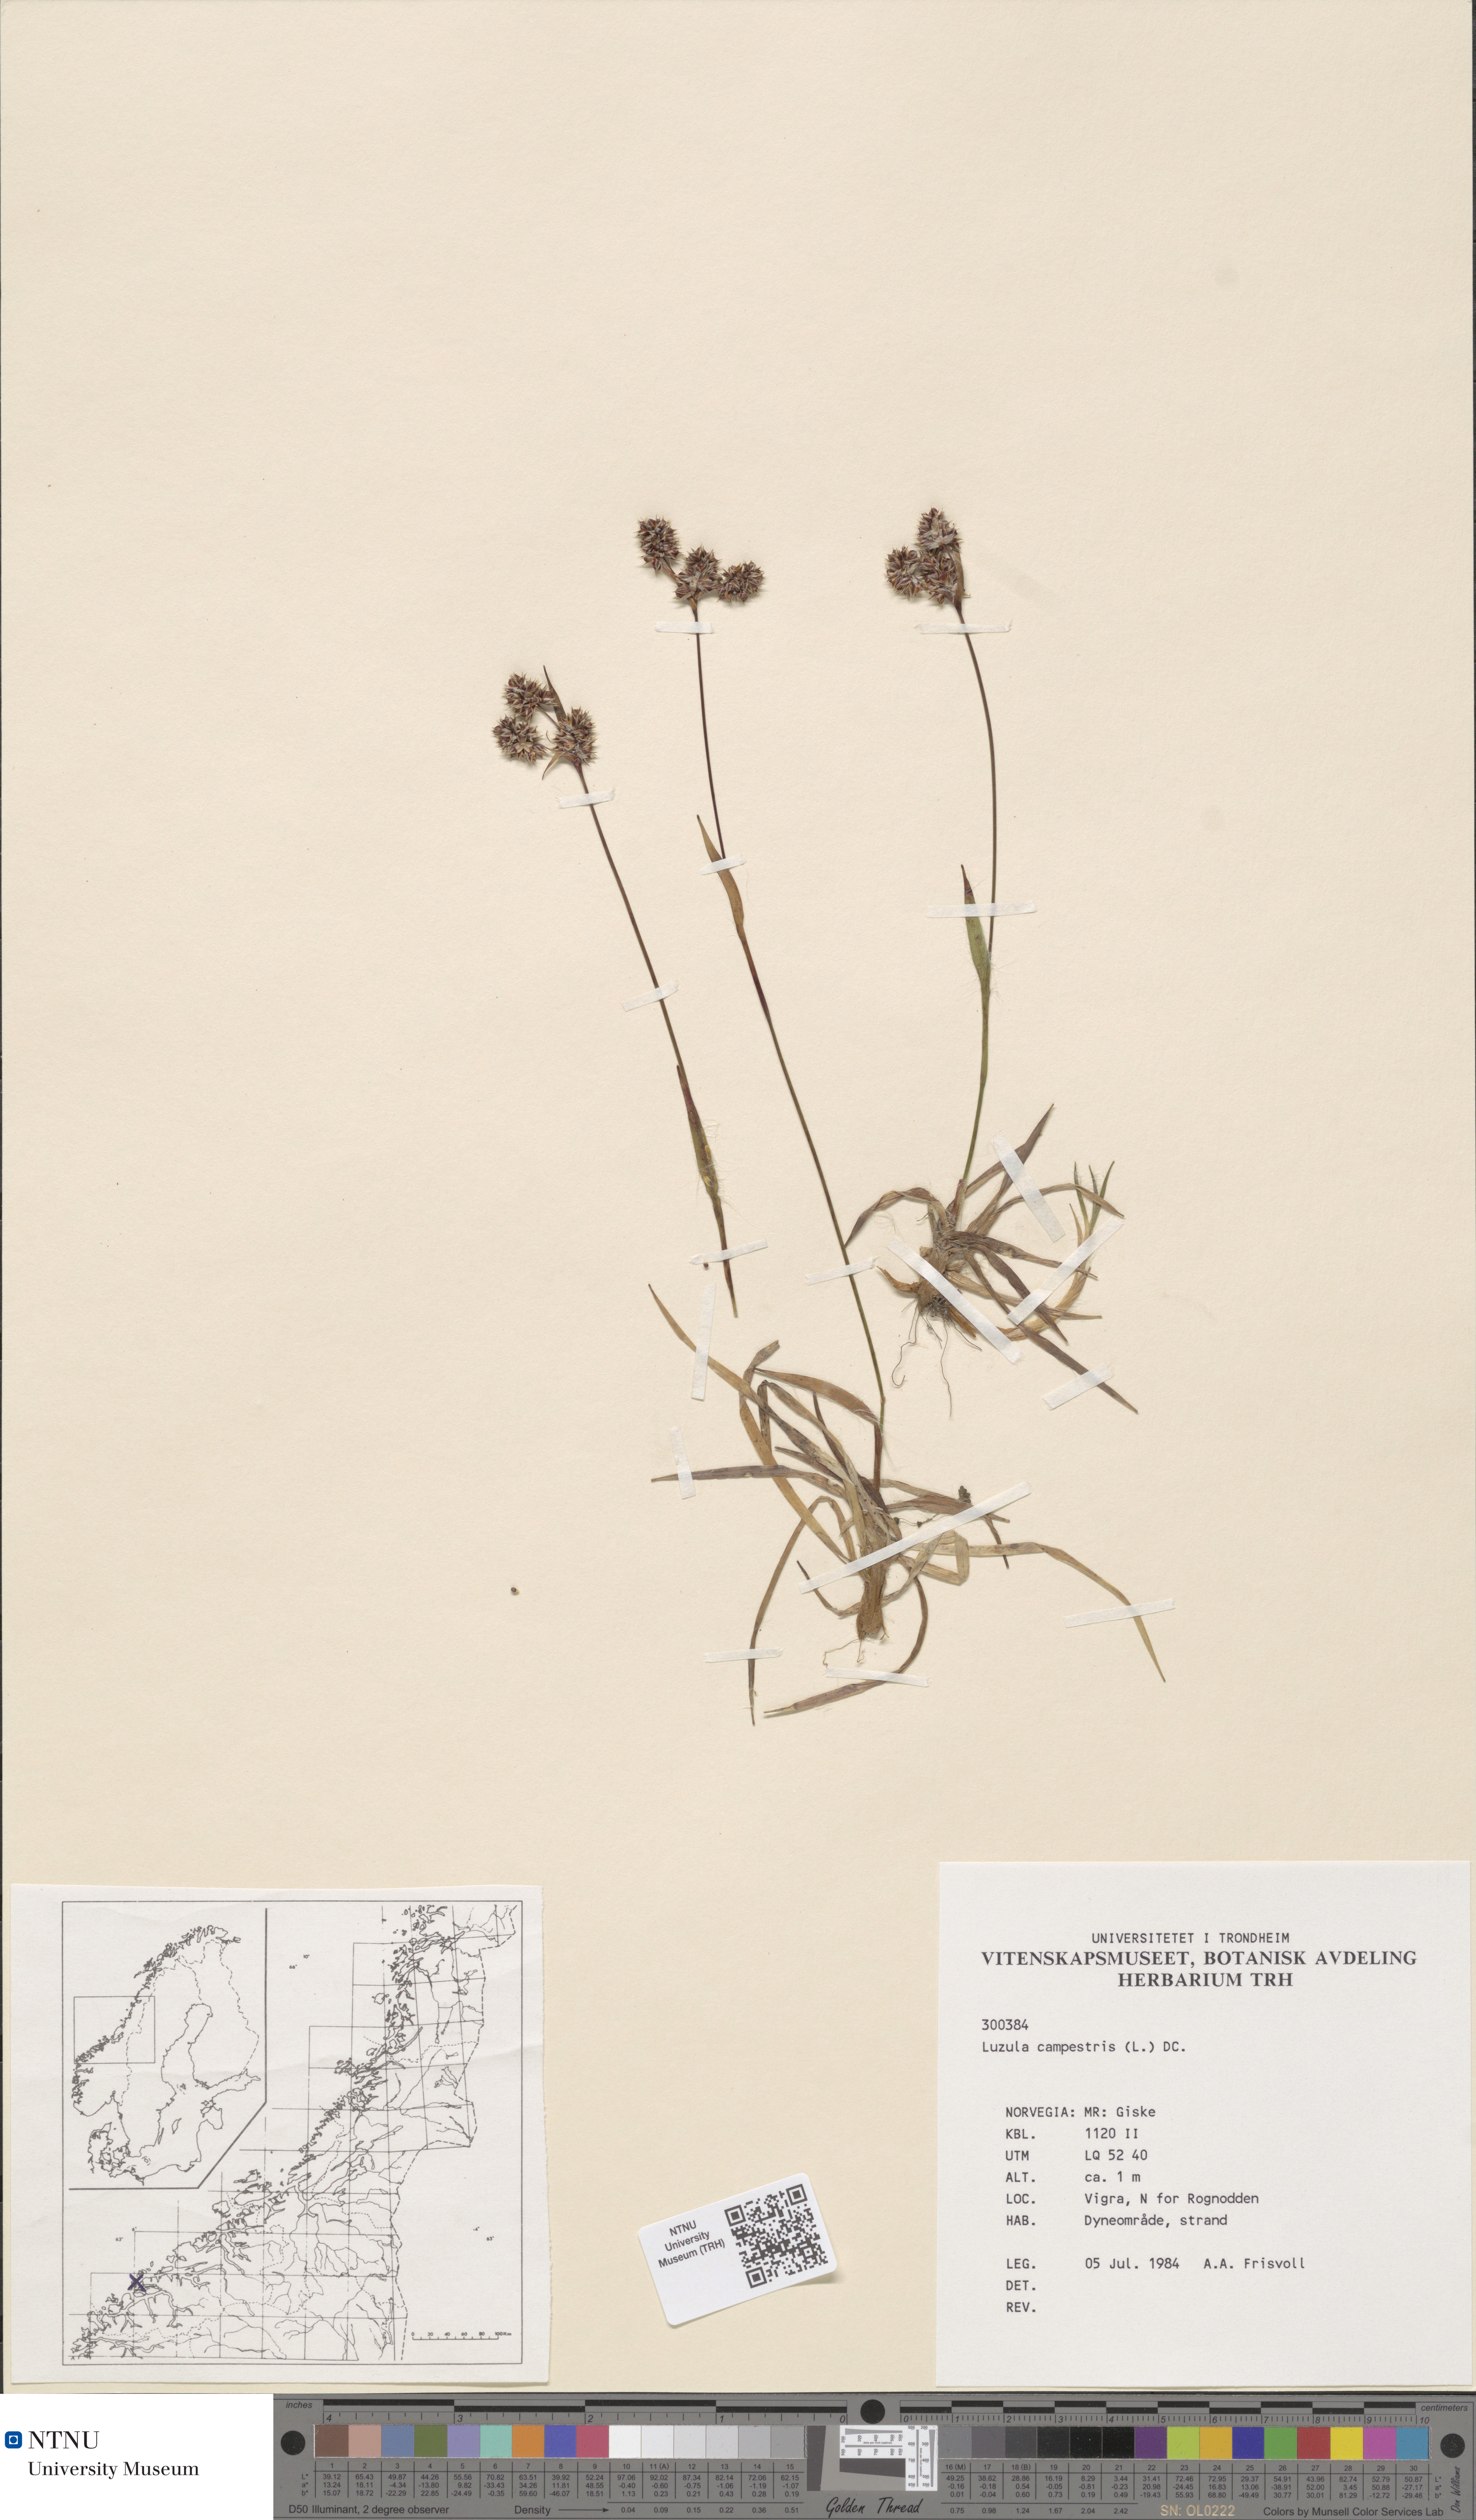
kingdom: Plantae
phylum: Tracheophyta
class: Liliopsida
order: Poales
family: Juncaceae
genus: Luzula
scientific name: Luzula campestris
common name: Field wood-rush
